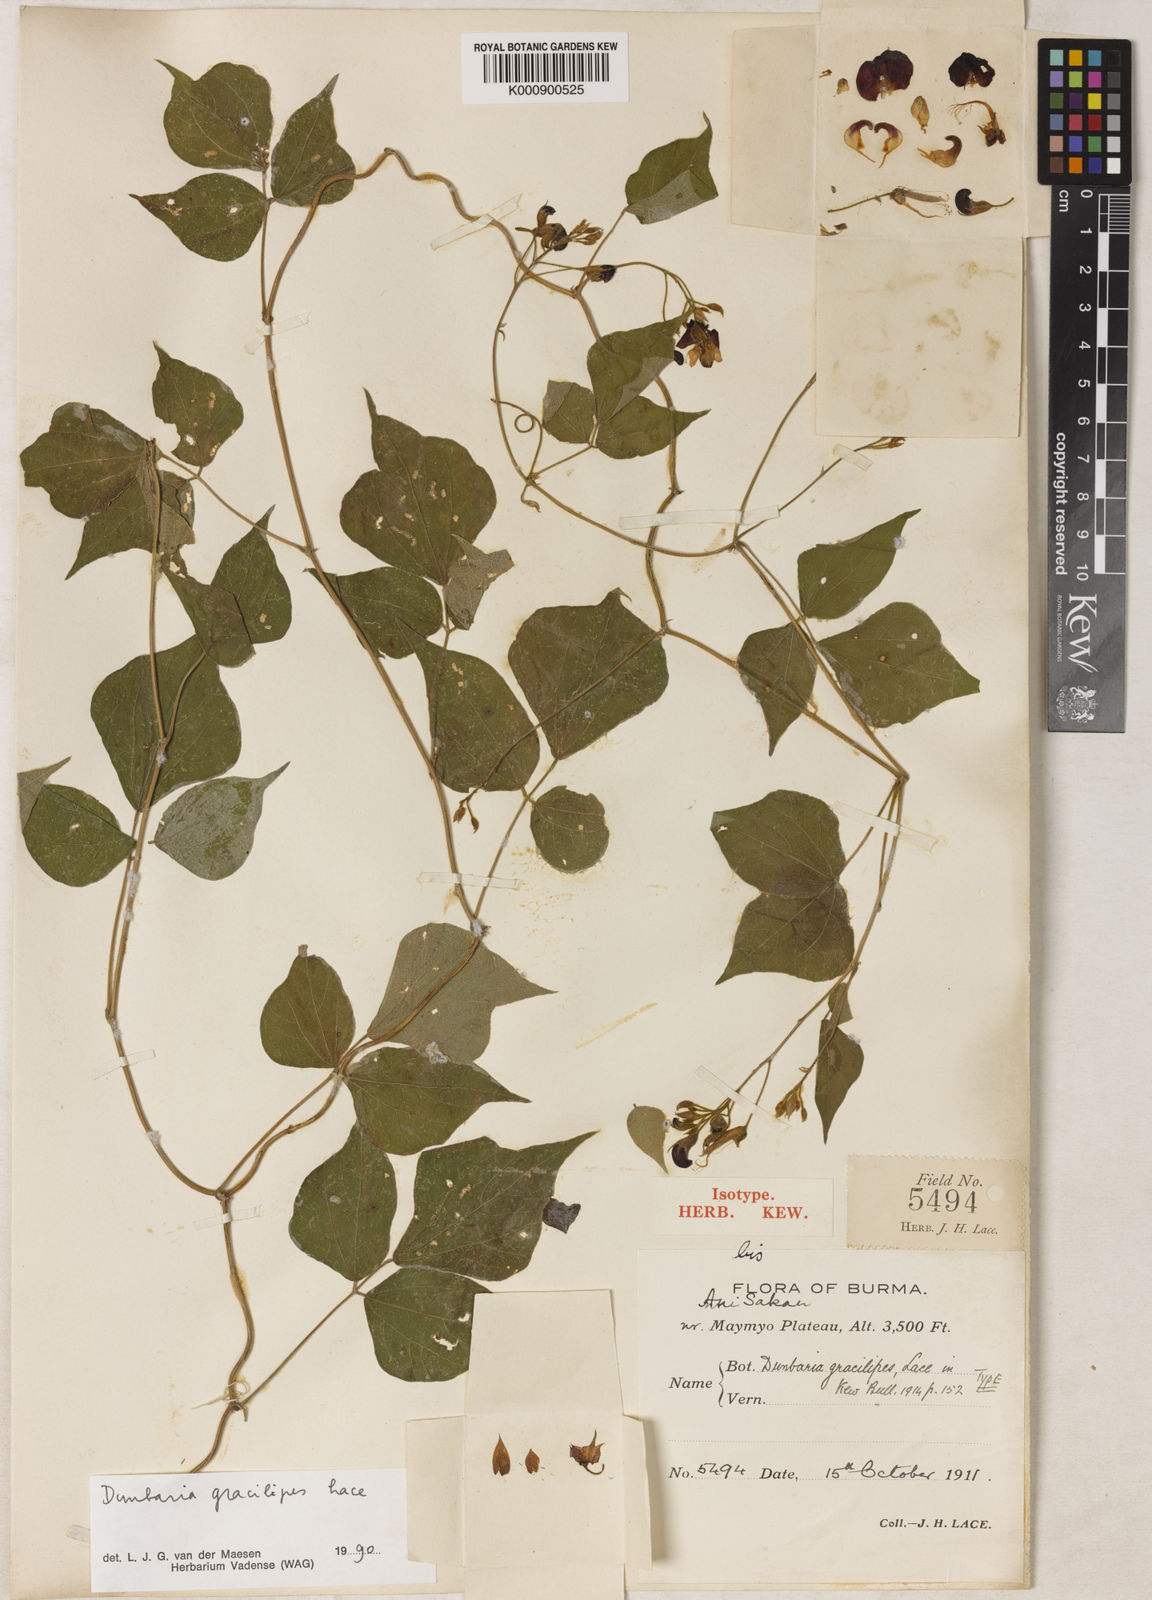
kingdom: Plantae
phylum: Tracheophyta
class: Magnoliopsida
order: Fabales
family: Fabaceae
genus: Dunbaria
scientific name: Dunbaria gracilipes
